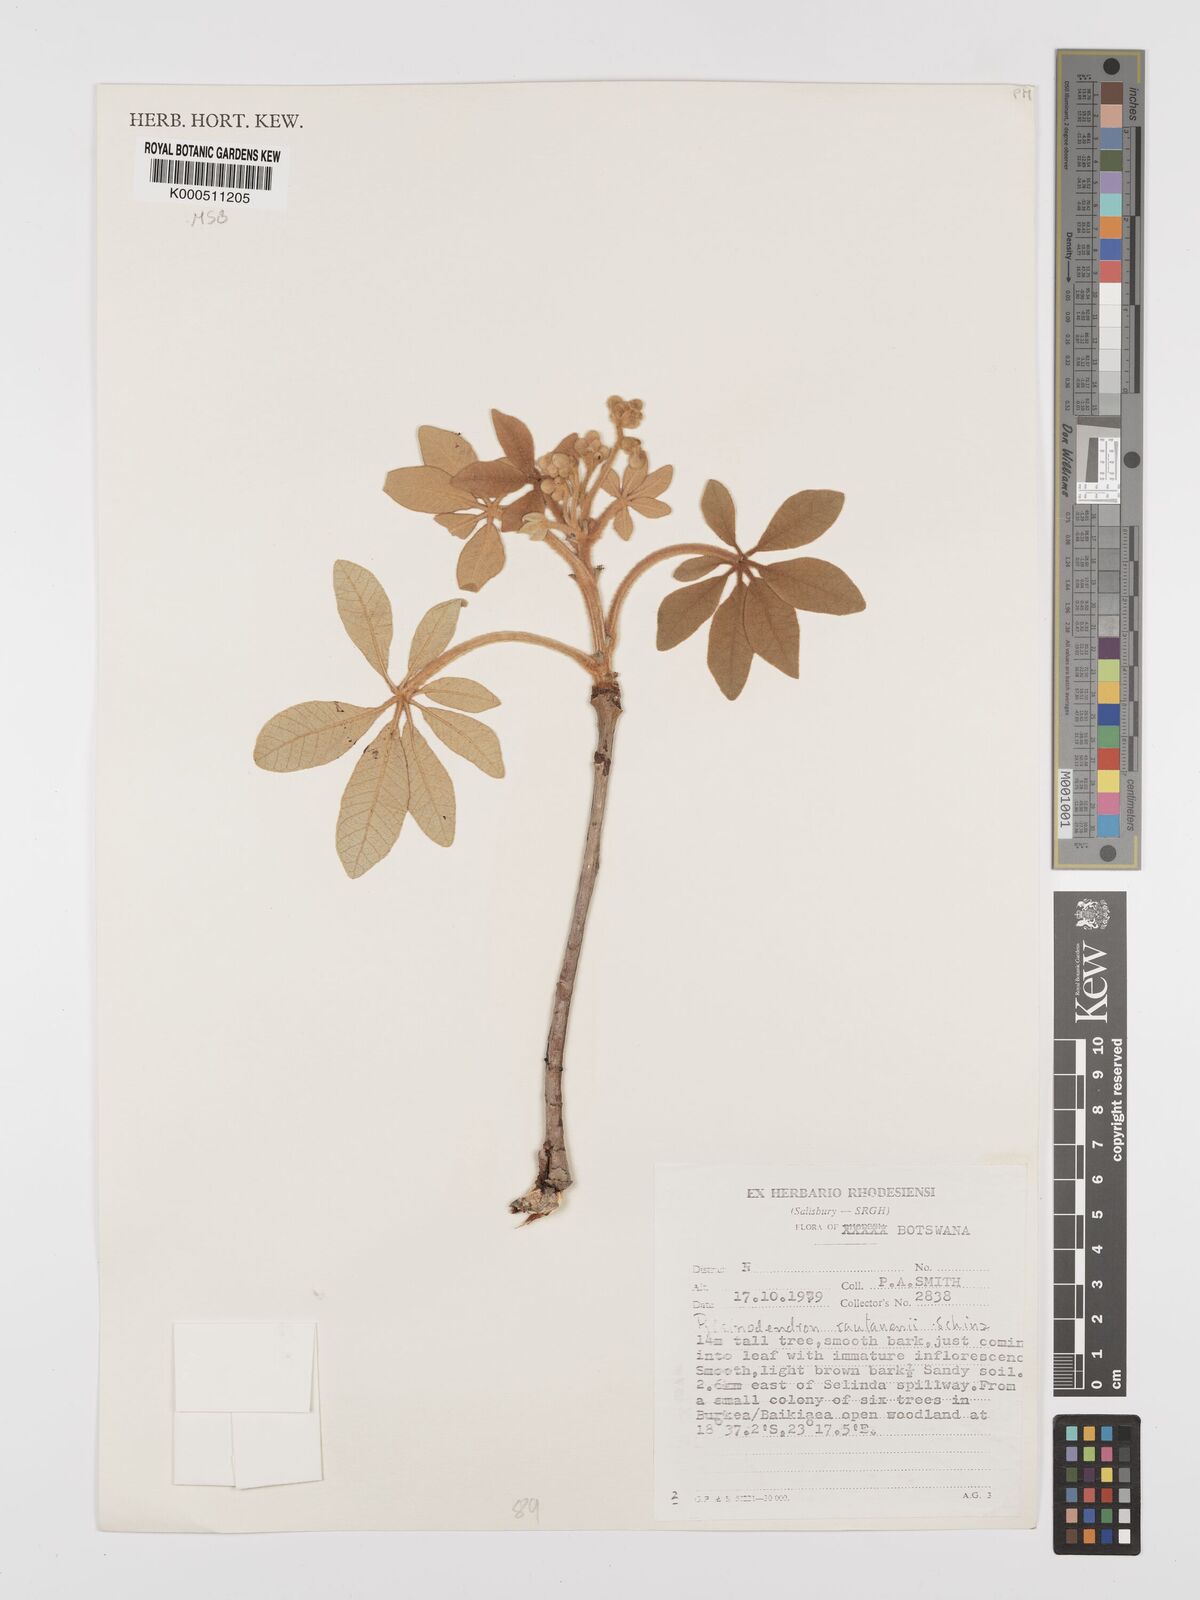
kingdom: Plantae
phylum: Tracheophyta
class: Magnoliopsida
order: Malpighiales
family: Euphorbiaceae
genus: Schinziophyton
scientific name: Schinziophyton rautanenii
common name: Manketti
